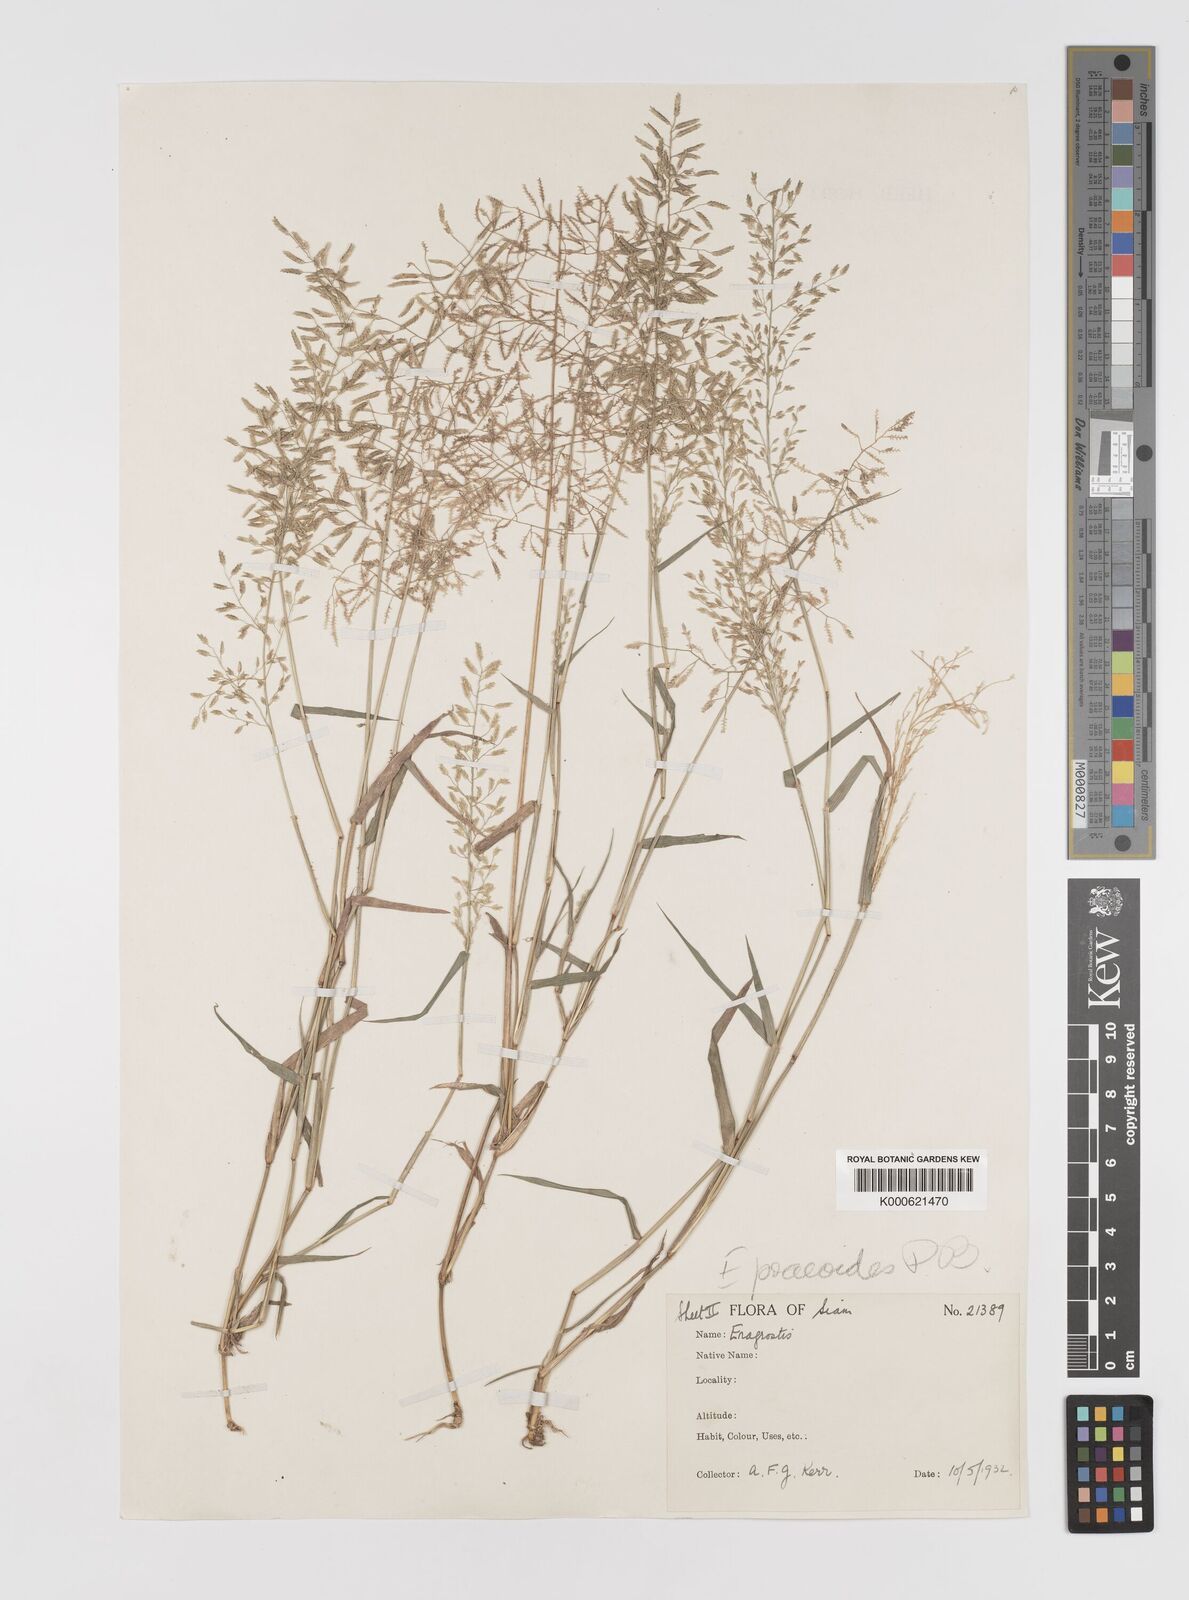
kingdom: Plantae
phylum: Tracheophyta
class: Liliopsida
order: Poales
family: Poaceae
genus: Eragrostis
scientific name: Eragrostis minor
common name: Small love-grass
